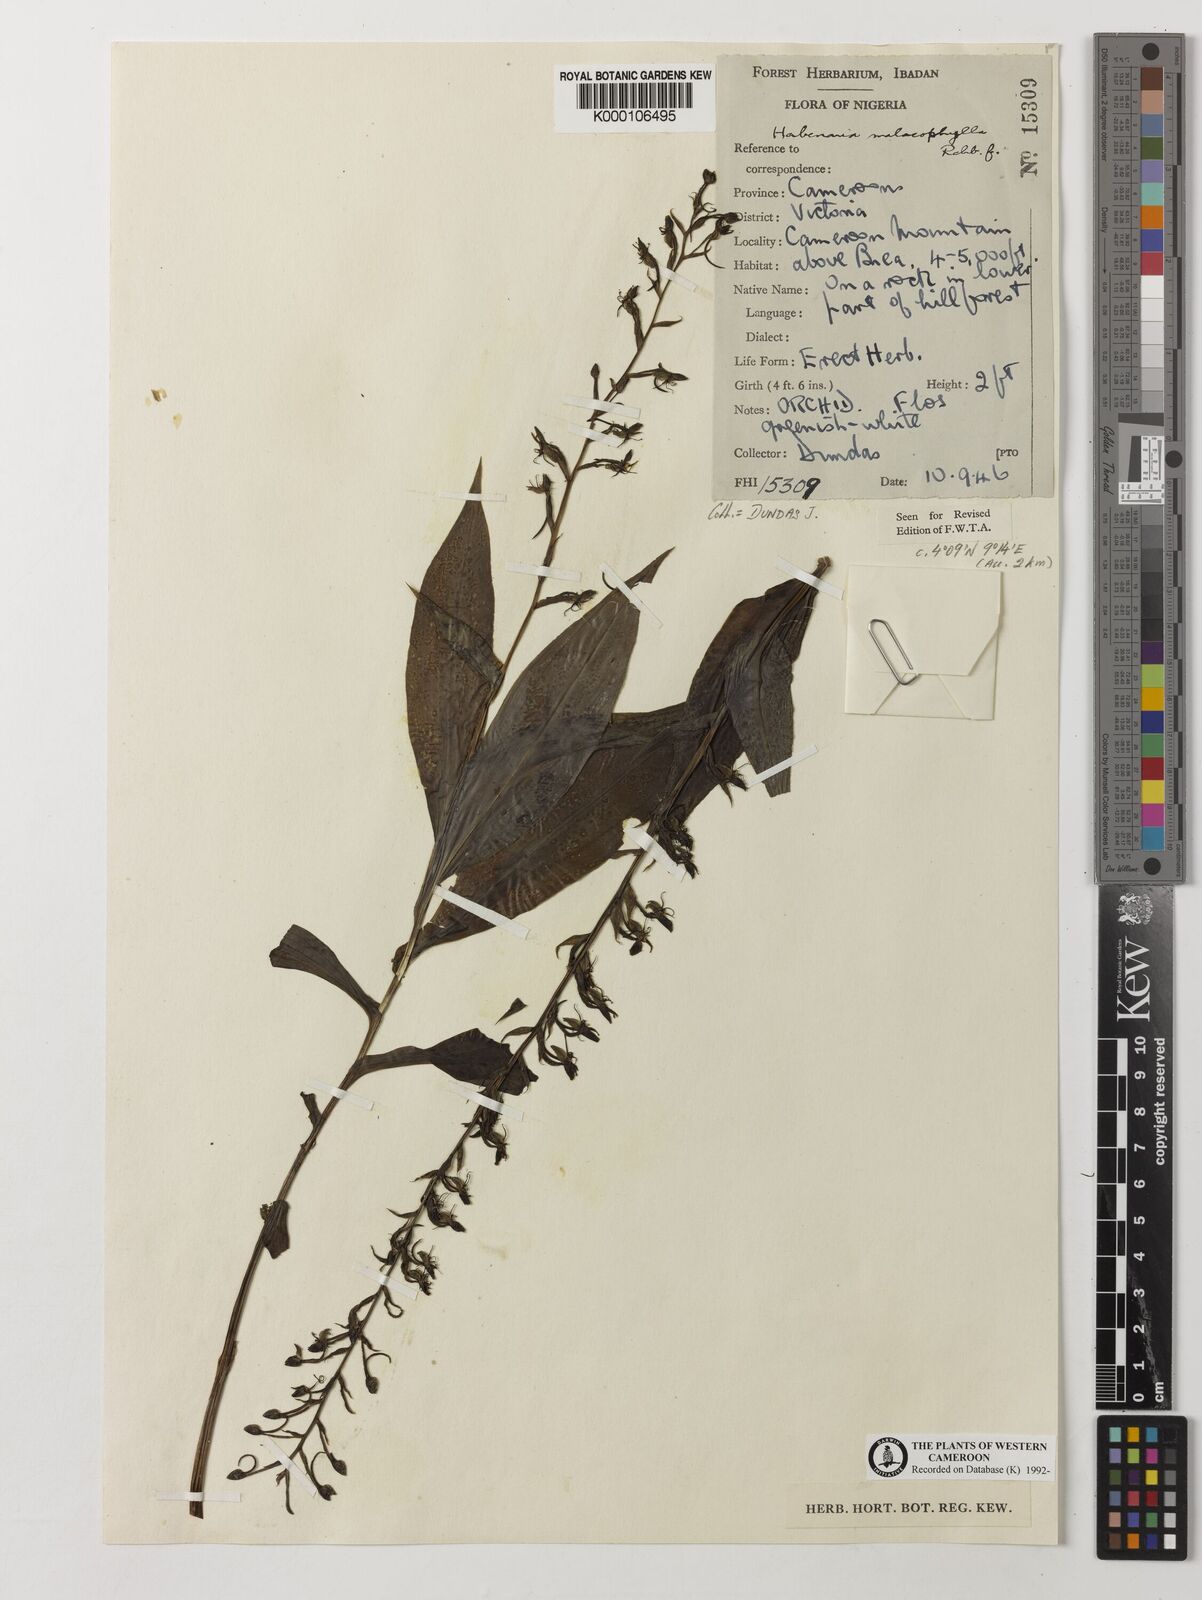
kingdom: Plantae
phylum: Tracheophyta
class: Liliopsida
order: Asparagales
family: Orchidaceae
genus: Habenaria
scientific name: Habenaria malacophylla
